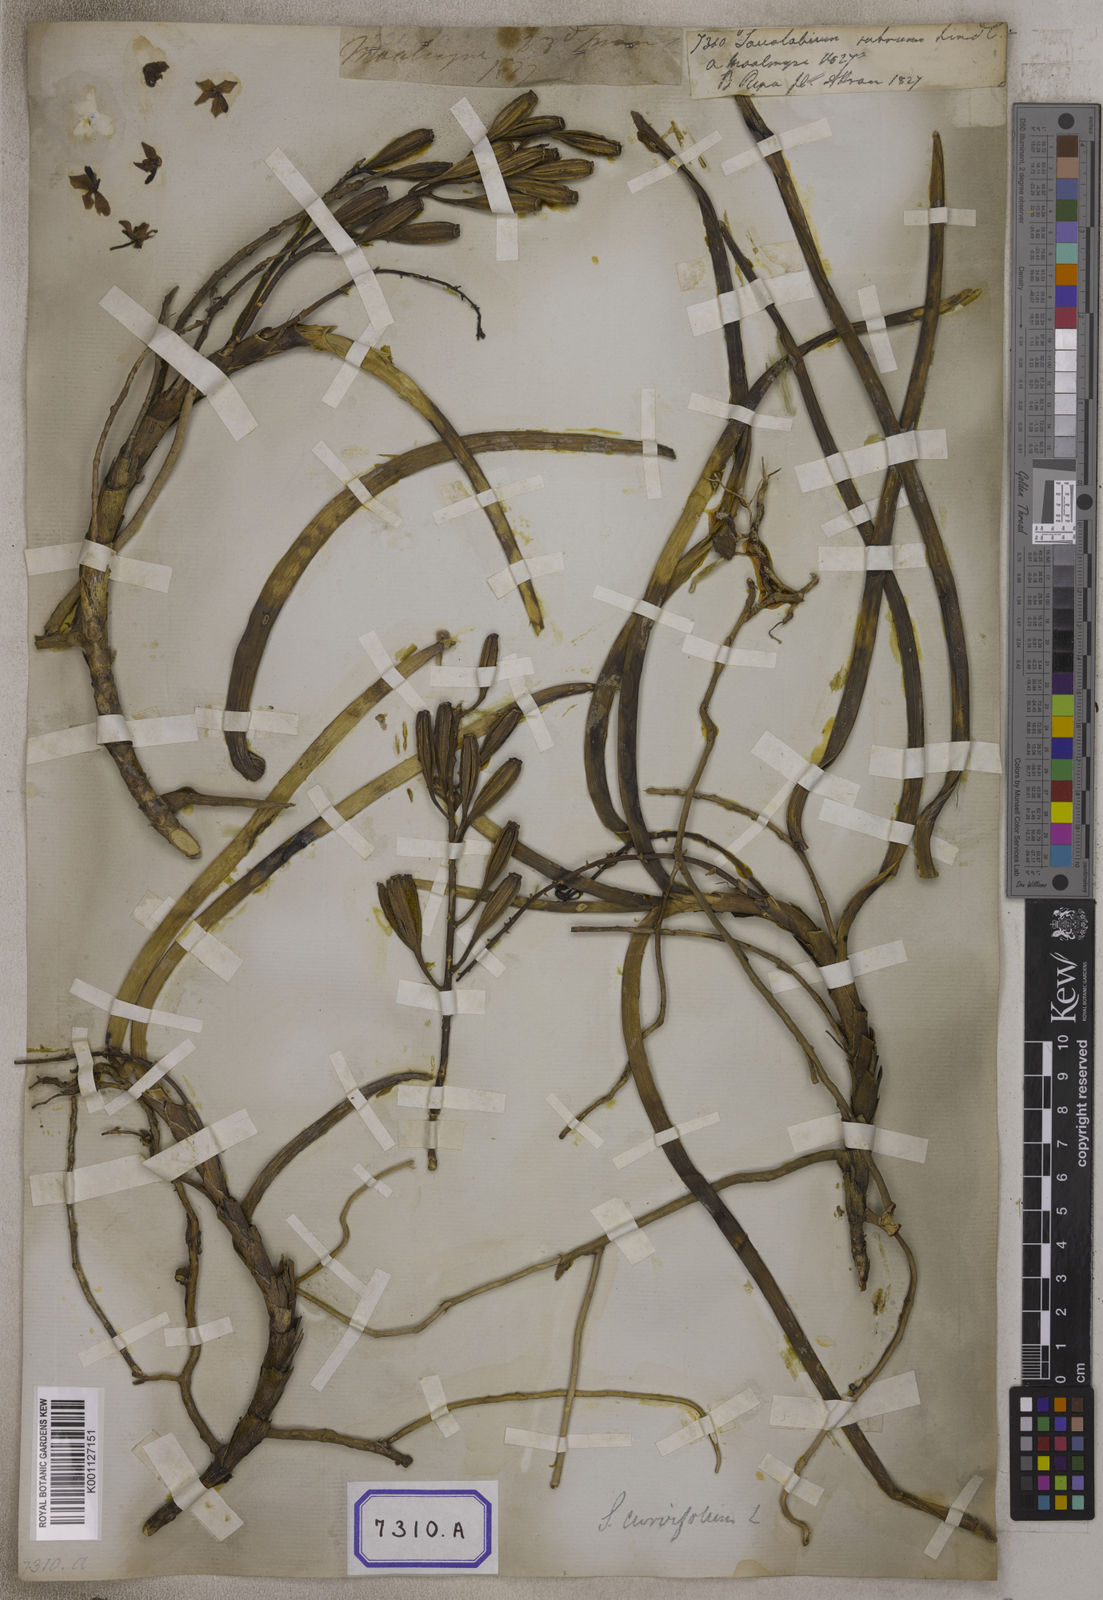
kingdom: Plantae
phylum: Tracheophyta
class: Liliopsida
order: Asparagales
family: Orchidaceae
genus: Vanda
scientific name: Vanda rubra
